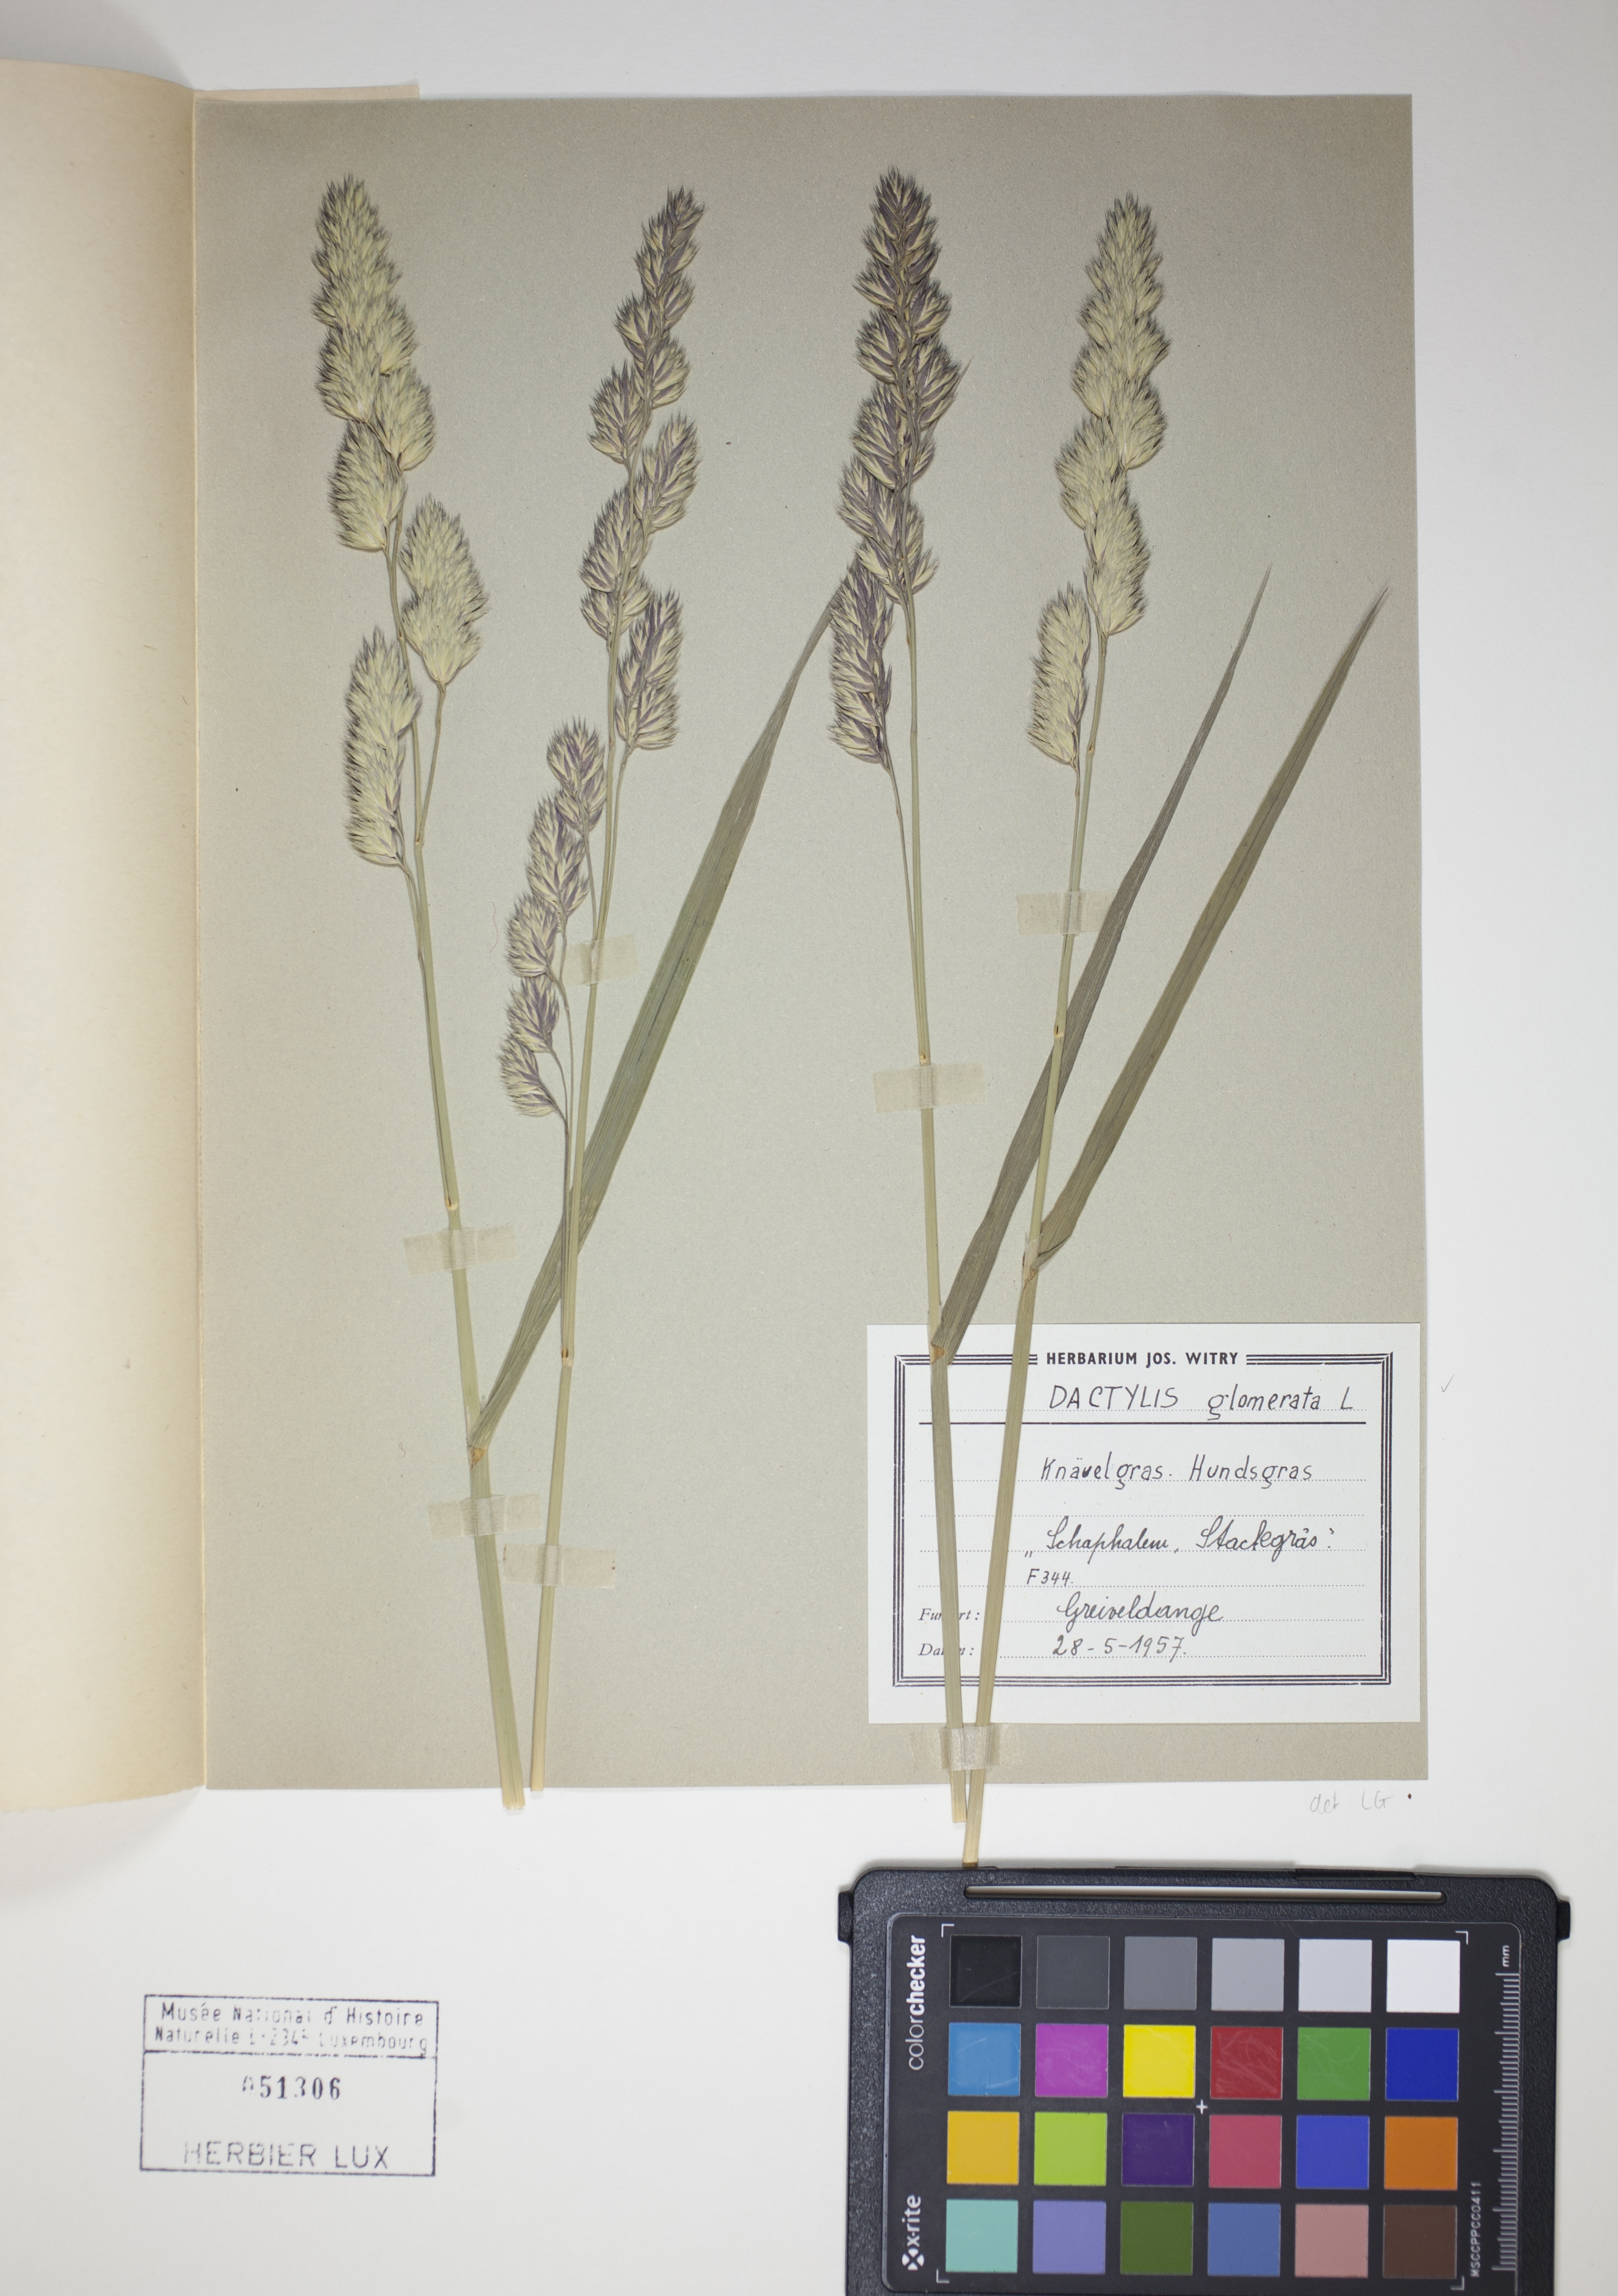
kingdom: Plantae
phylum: Tracheophyta
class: Liliopsida
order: Poales
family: Poaceae
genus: Dactylis
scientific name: Dactylis glomerata
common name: Orchardgrass
